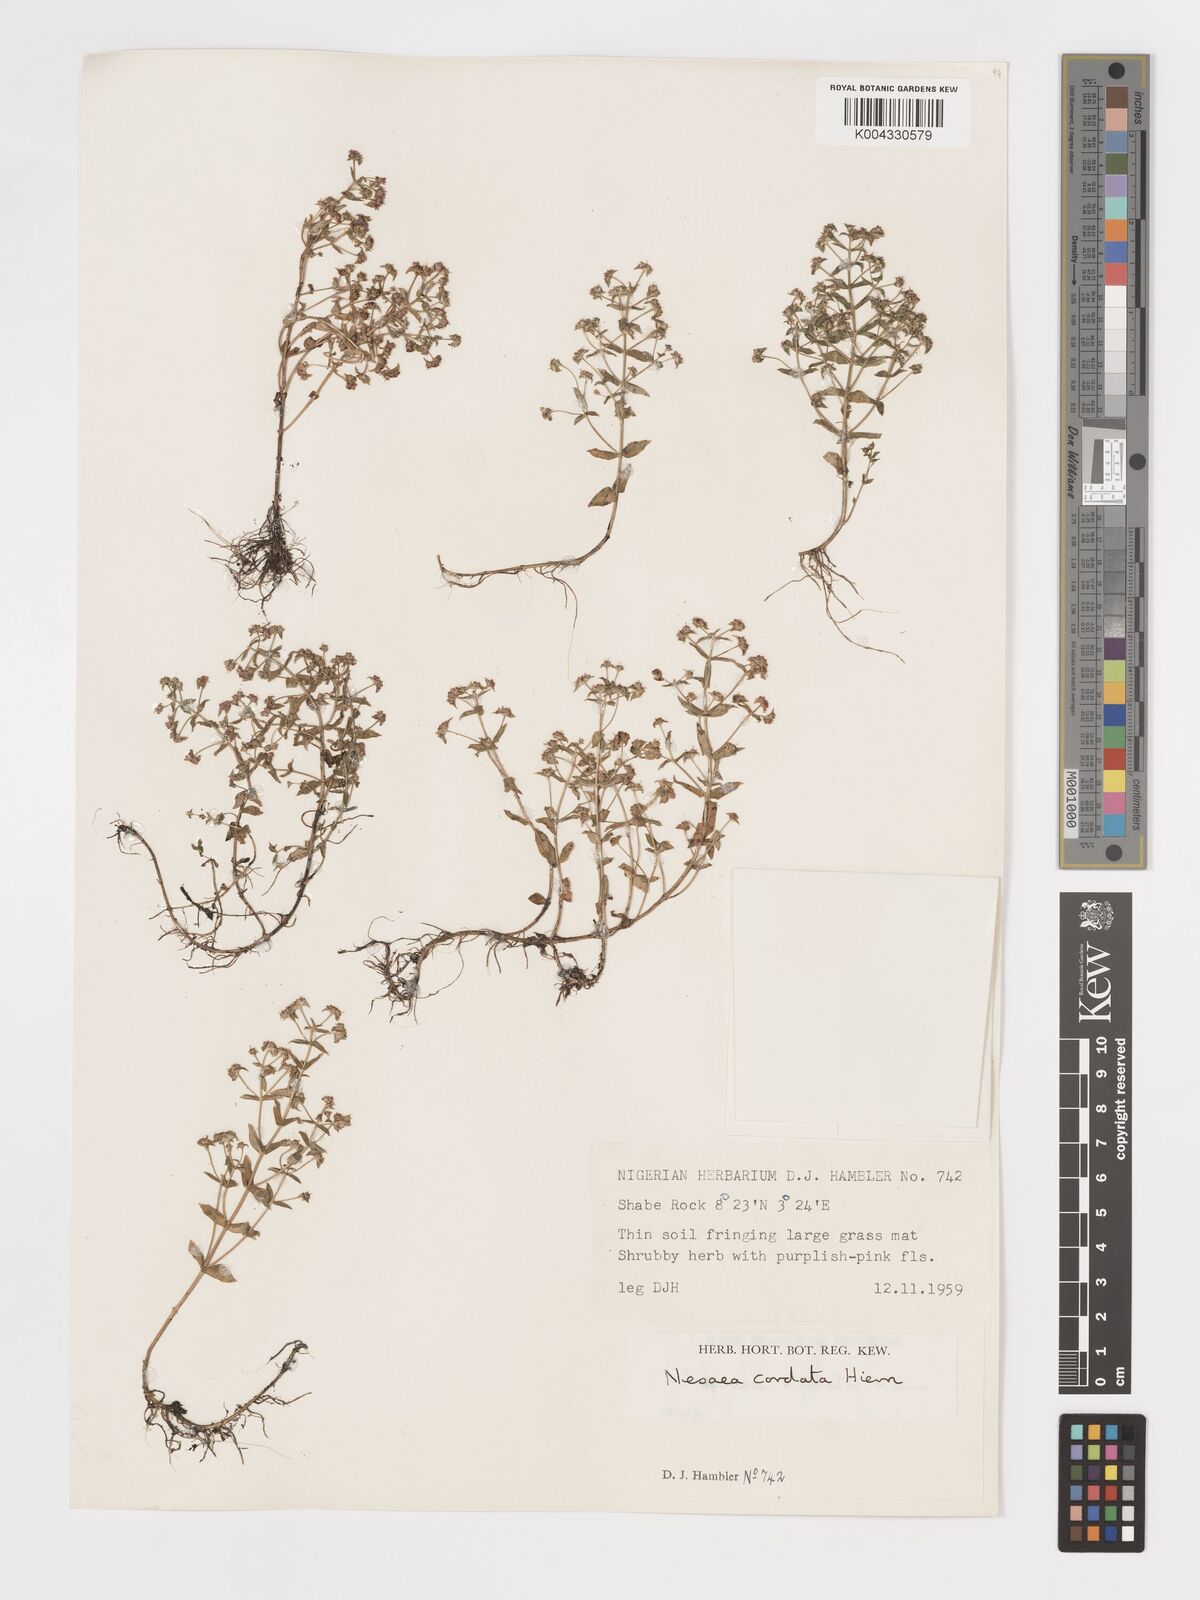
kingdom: Plantae
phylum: Tracheophyta
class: Magnoliopsida
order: Myrtales
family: Lythraceae
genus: Nesaea
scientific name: Nesaea
